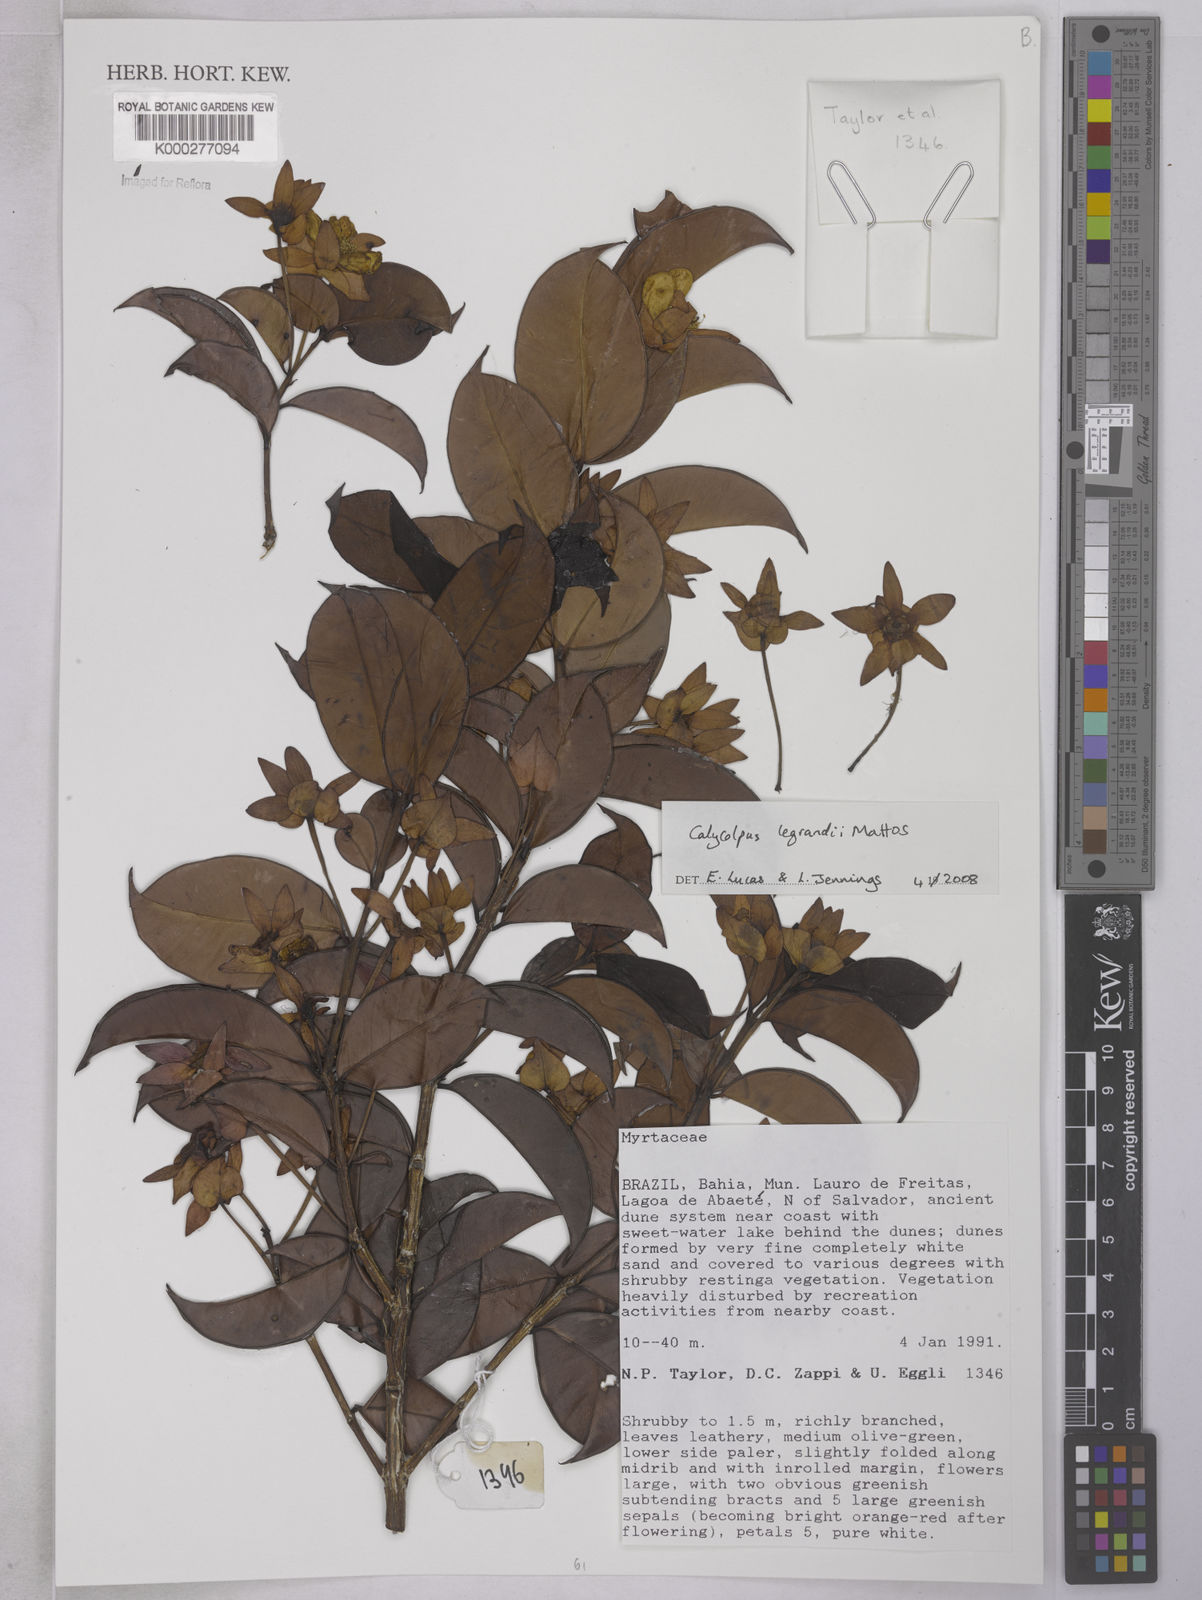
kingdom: Plantae
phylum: Tracheophyta
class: Magnoliopsida
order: Myrtales
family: Myrtaceae
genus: Calycolpus
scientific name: Calycolpus legrandii
